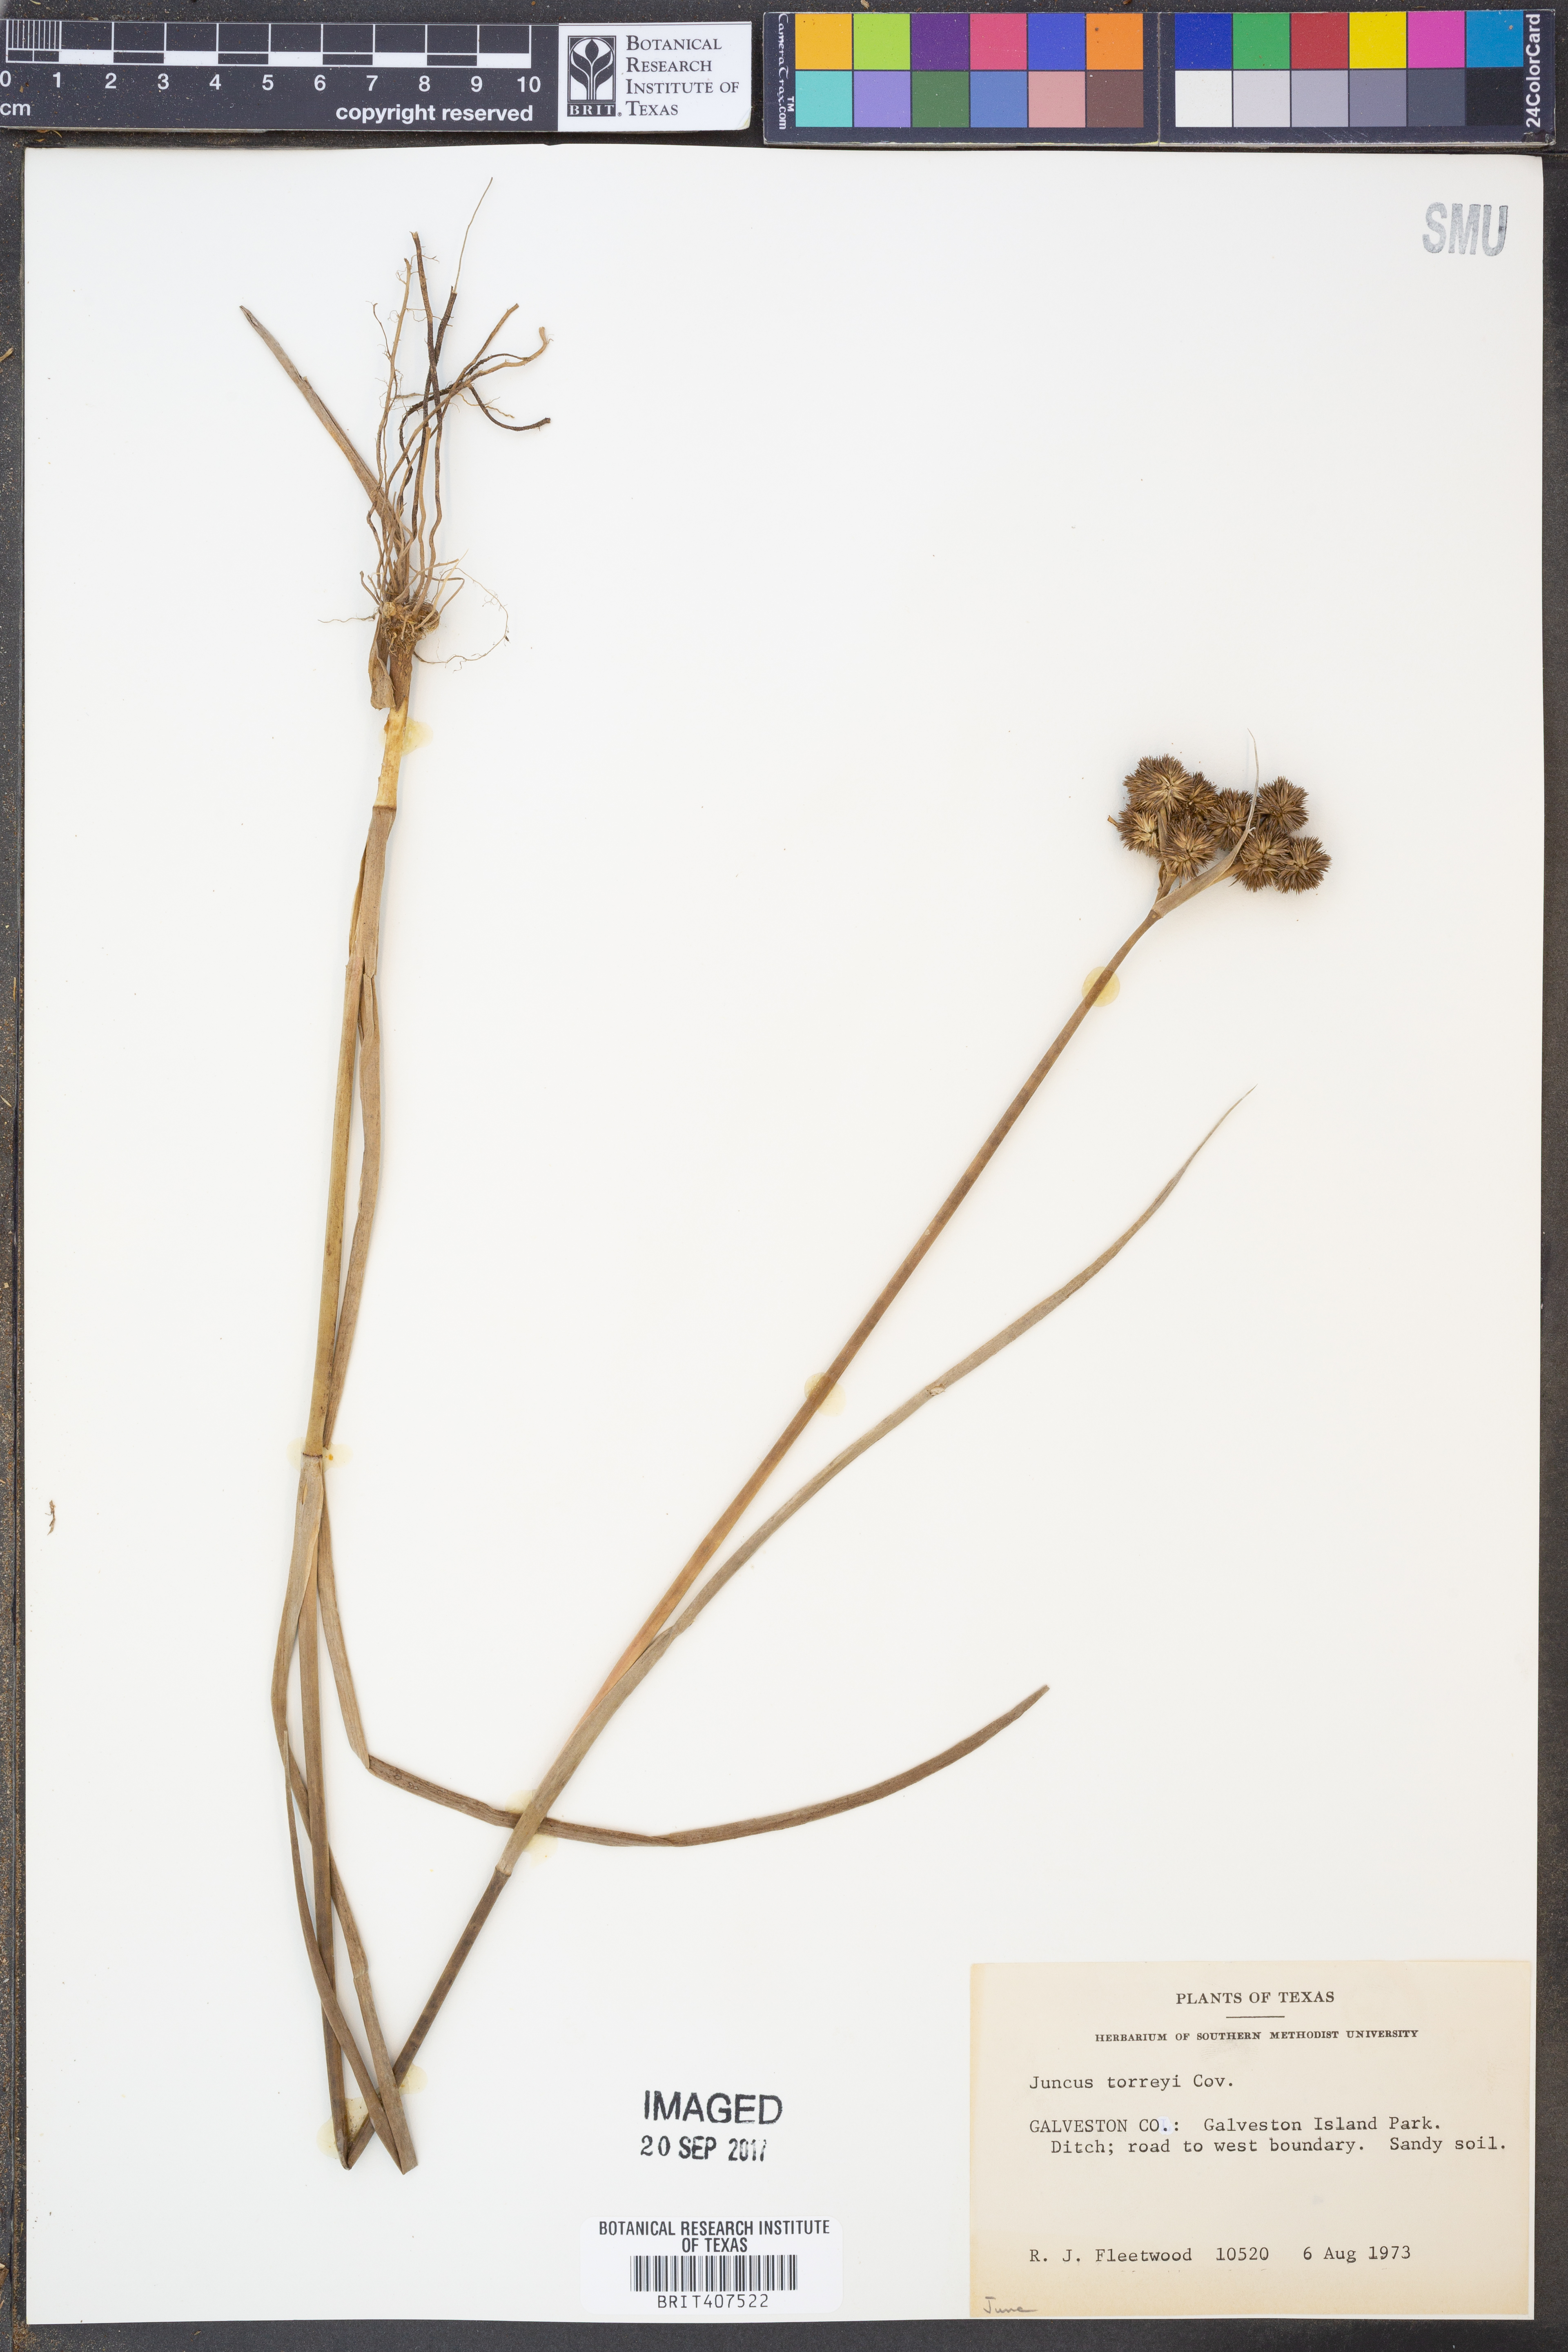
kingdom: Plantae
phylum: Tracheophyta
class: Liliopsida
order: Poales
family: Juncaceae
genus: Juncus
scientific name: Juncus torreyi
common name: Torrey's rush
